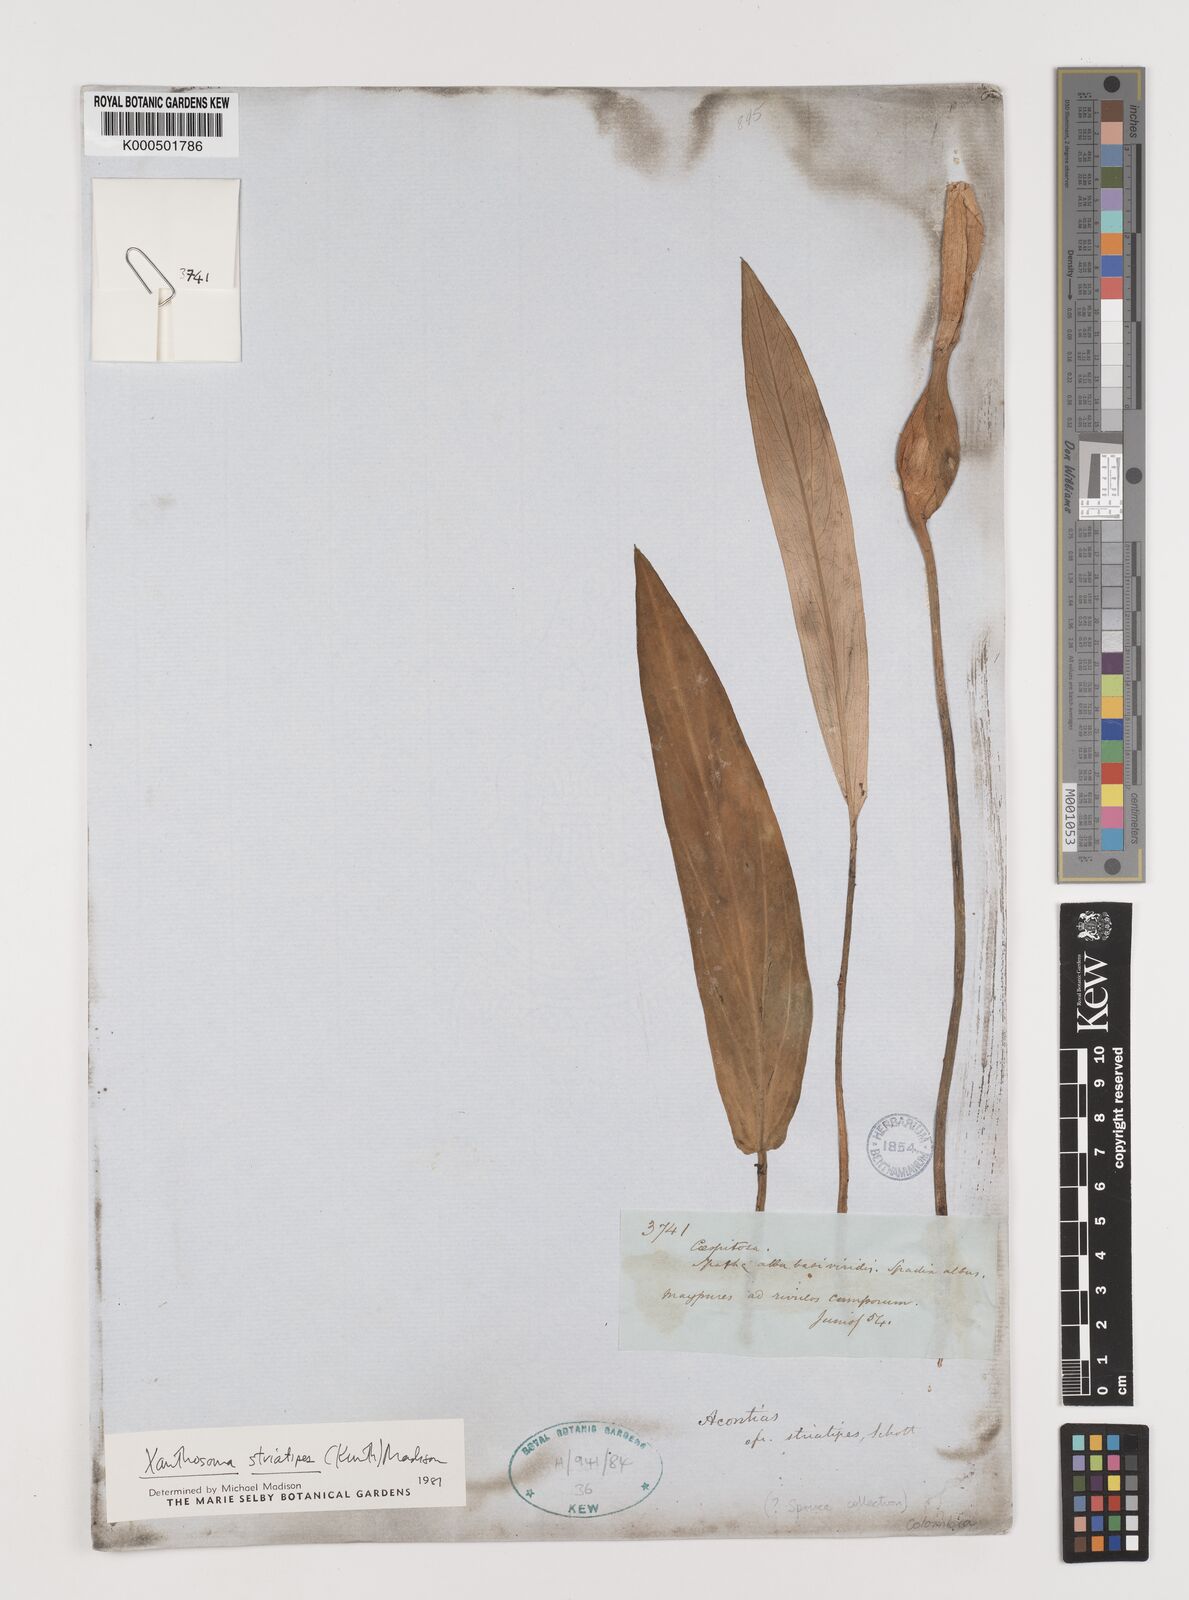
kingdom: Plantae
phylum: Tracheophyta
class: Liliopsida
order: Alismatales
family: Araceae
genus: Xanthosoma
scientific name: Xanthosoma striatipes
